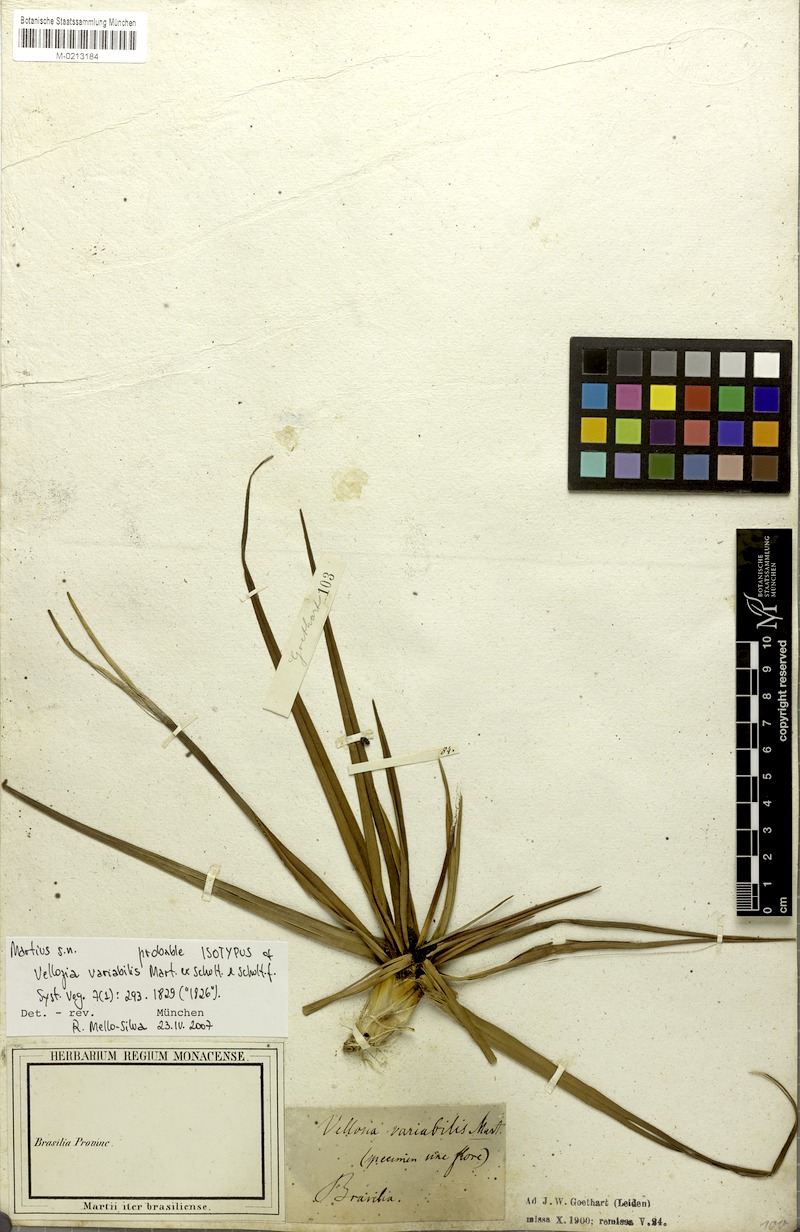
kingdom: Plantae
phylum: Tracheophyta
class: Liliopsida
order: Pandanales
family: Velloziaceae
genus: Vellozia
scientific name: Vellozia variabilis
